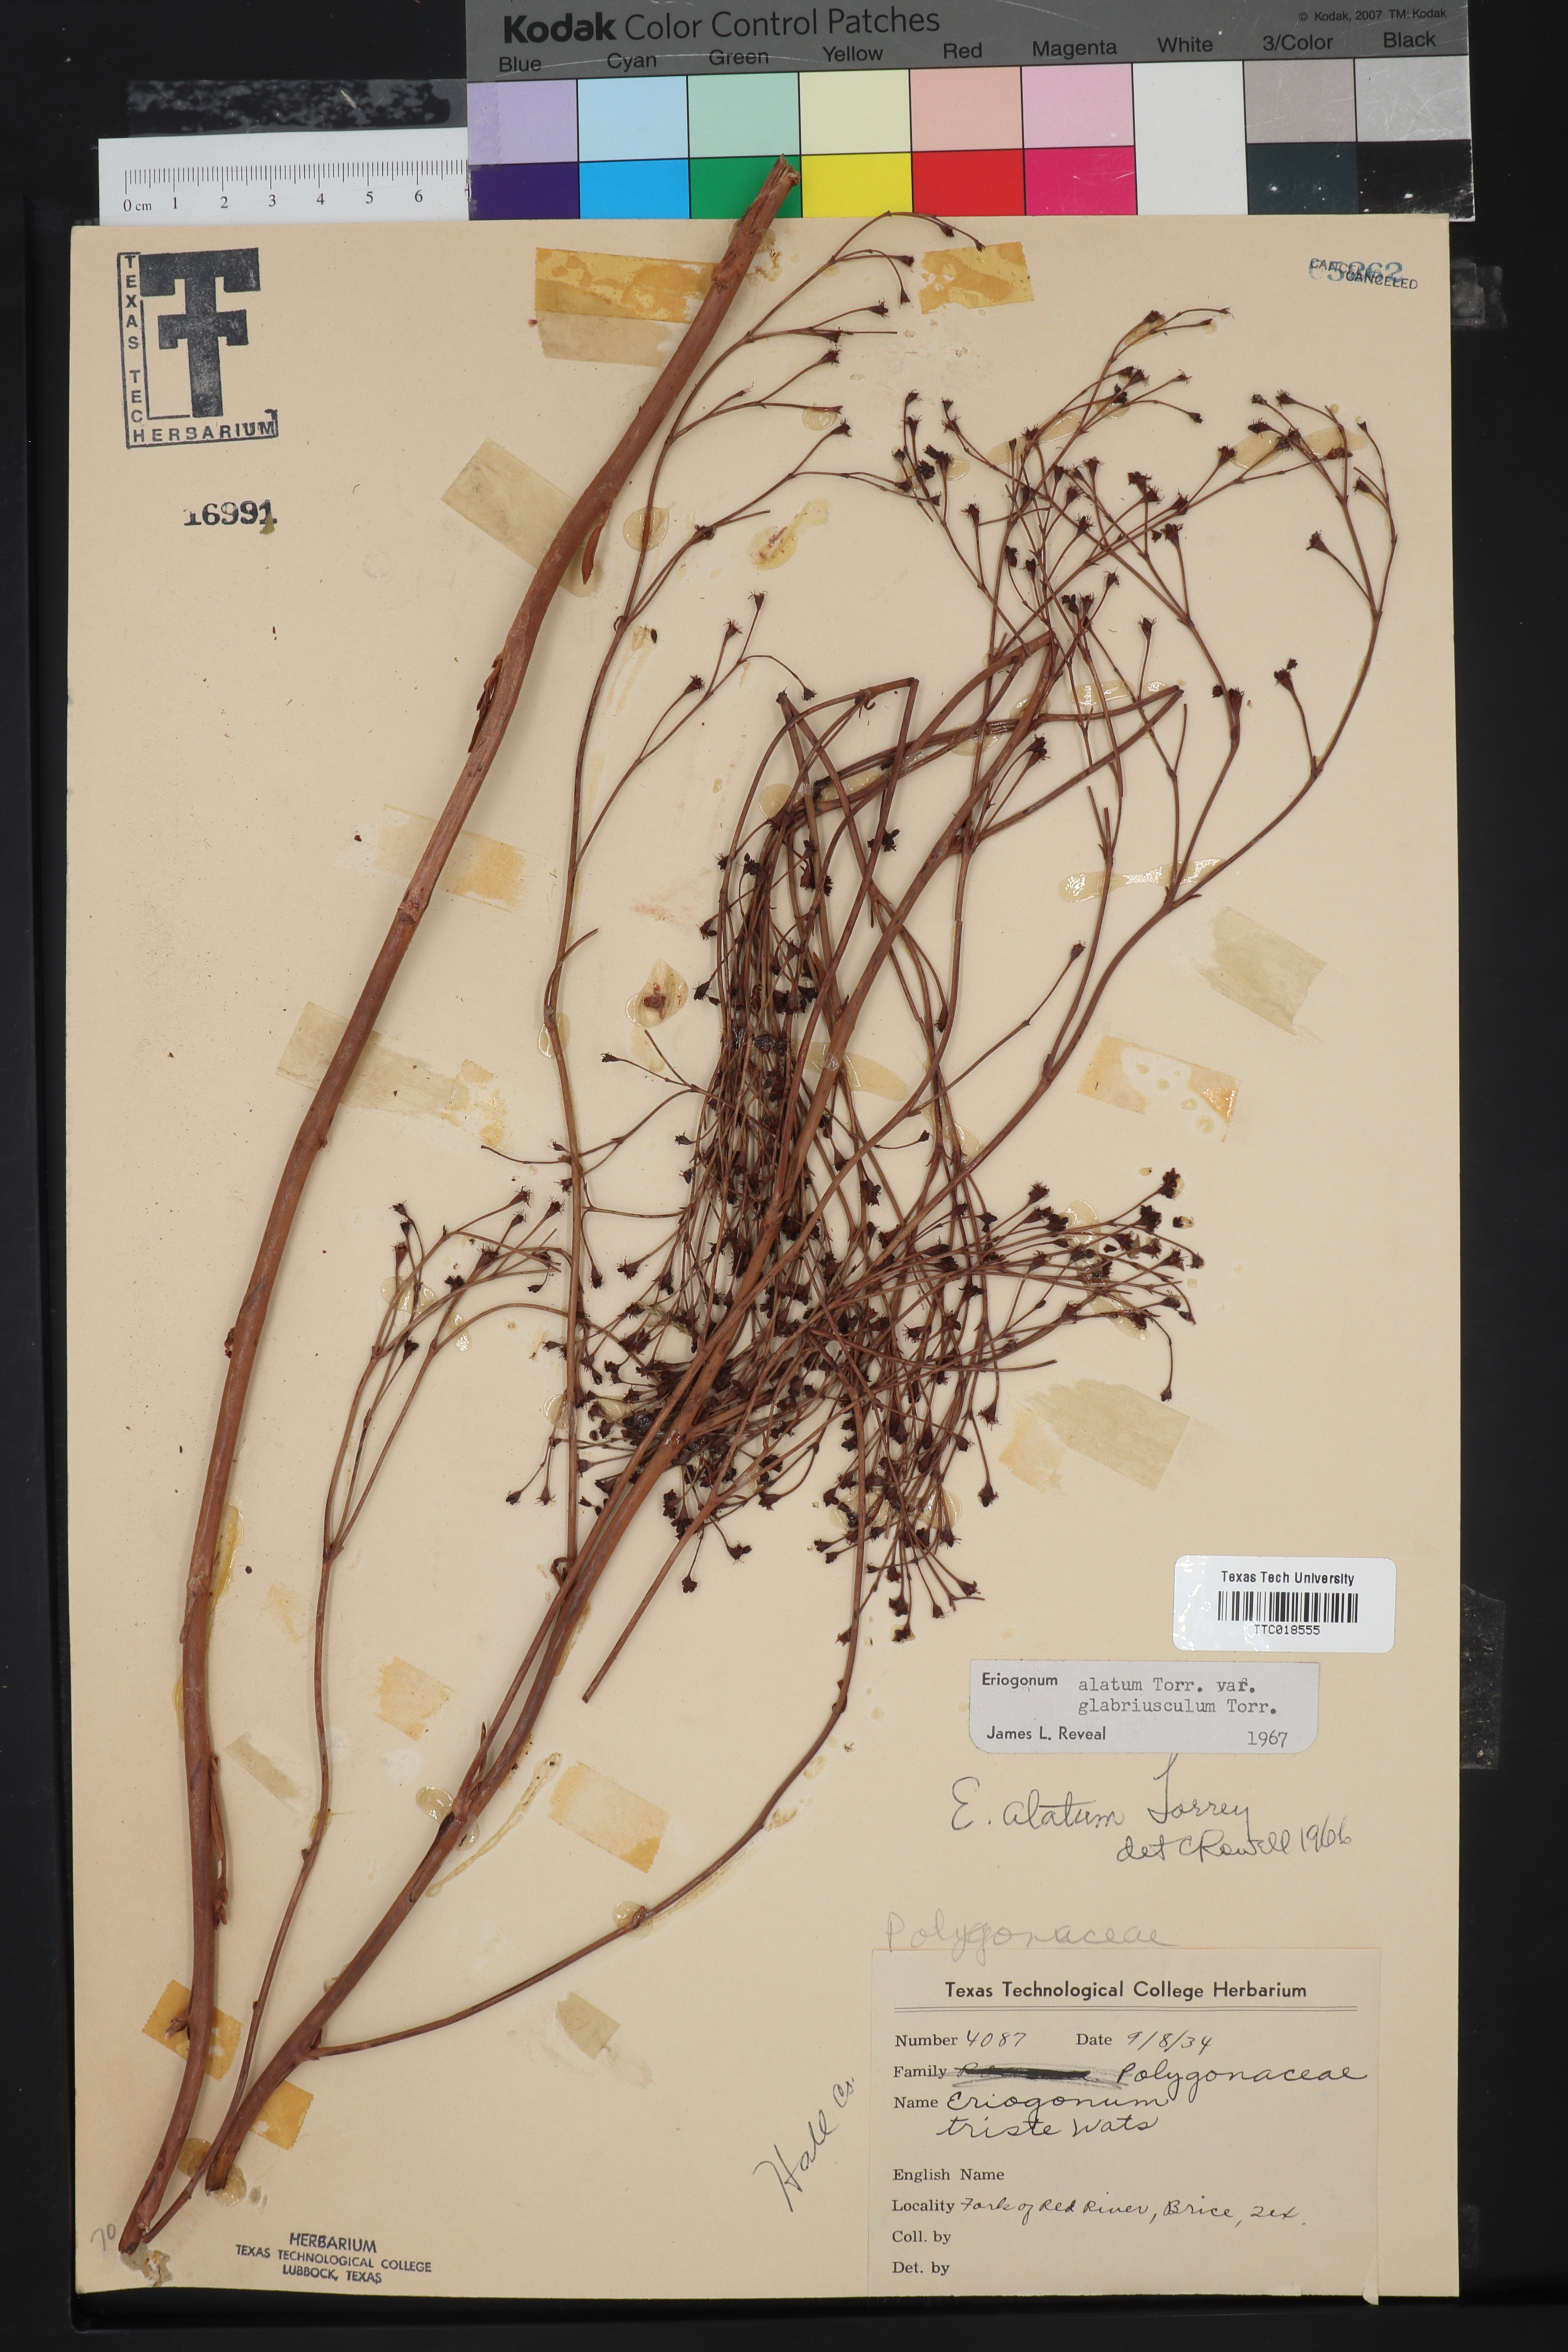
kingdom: Plantae
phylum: Tracheophyta
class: Magnoliopsida
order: Caryophyllales
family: Polygonaceae
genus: Eriogonum
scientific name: Eriogonum alatum
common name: Winged eriogonum
